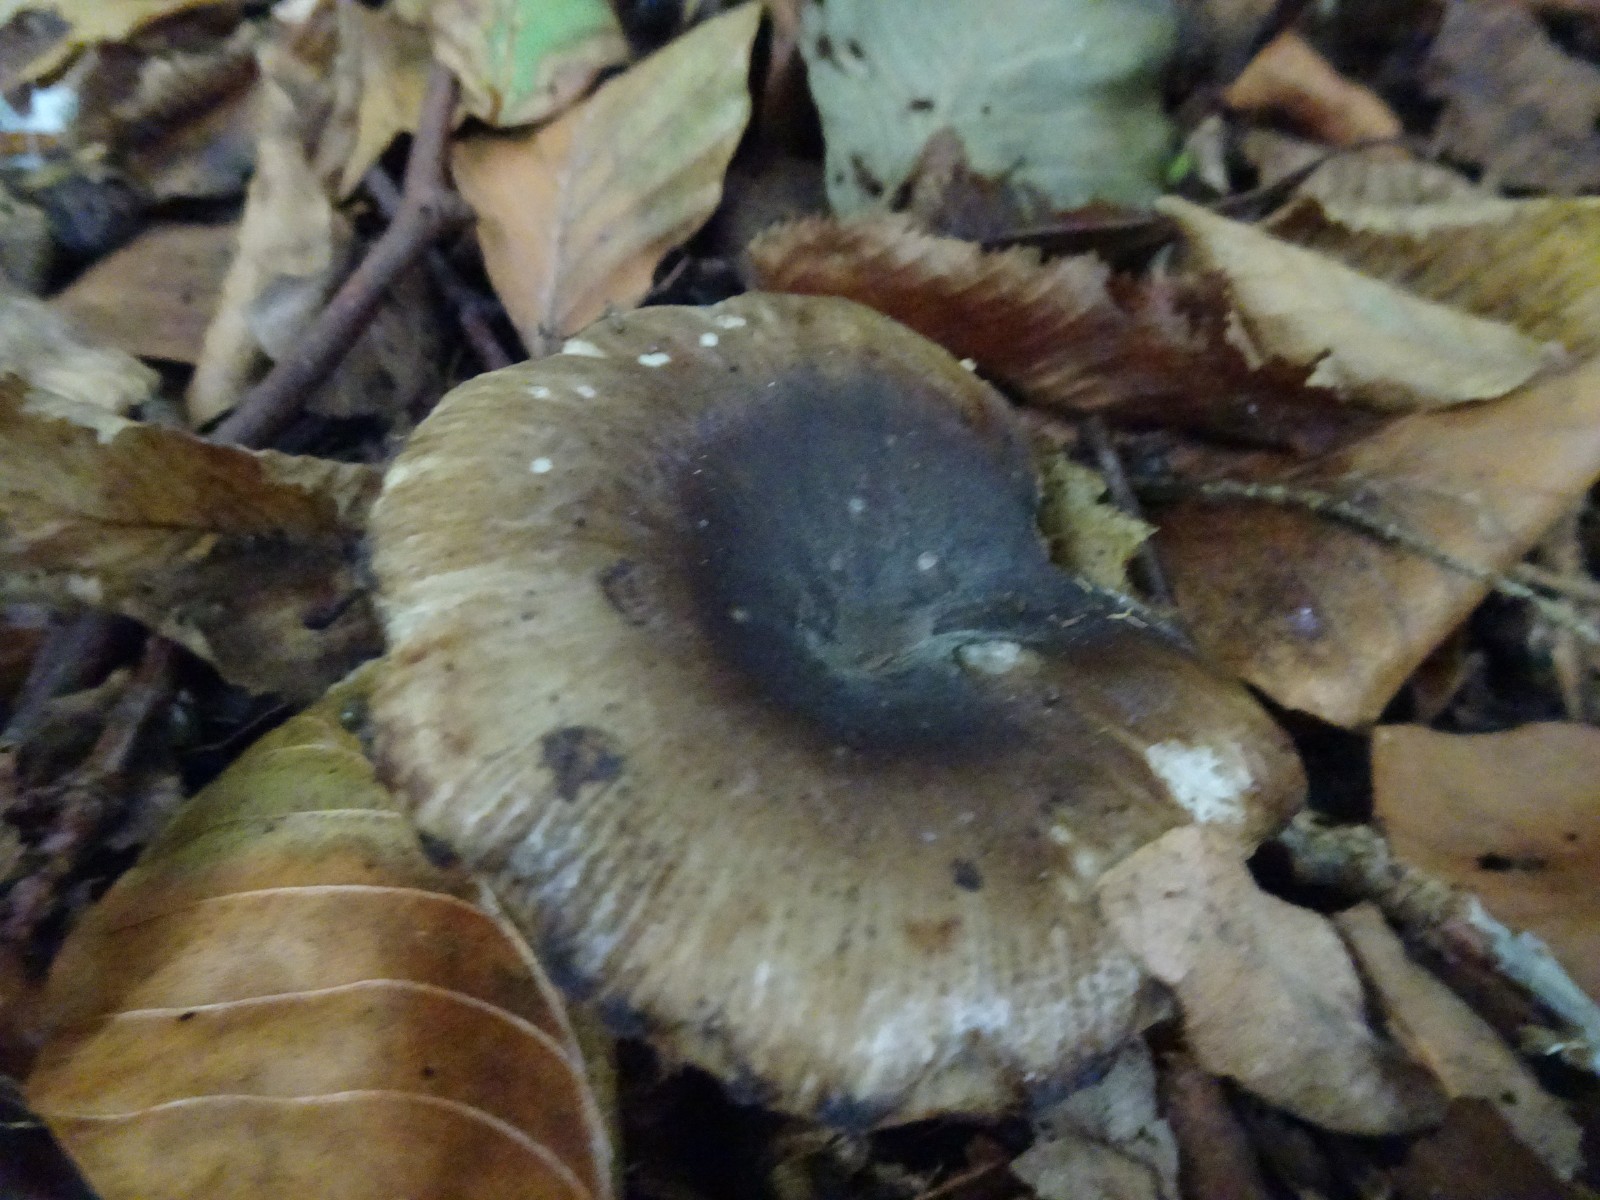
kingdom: Fungi
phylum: Basidiomycota
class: Agaricomycetes
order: Russulales
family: Russulaceae
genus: Russula
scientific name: Russula
